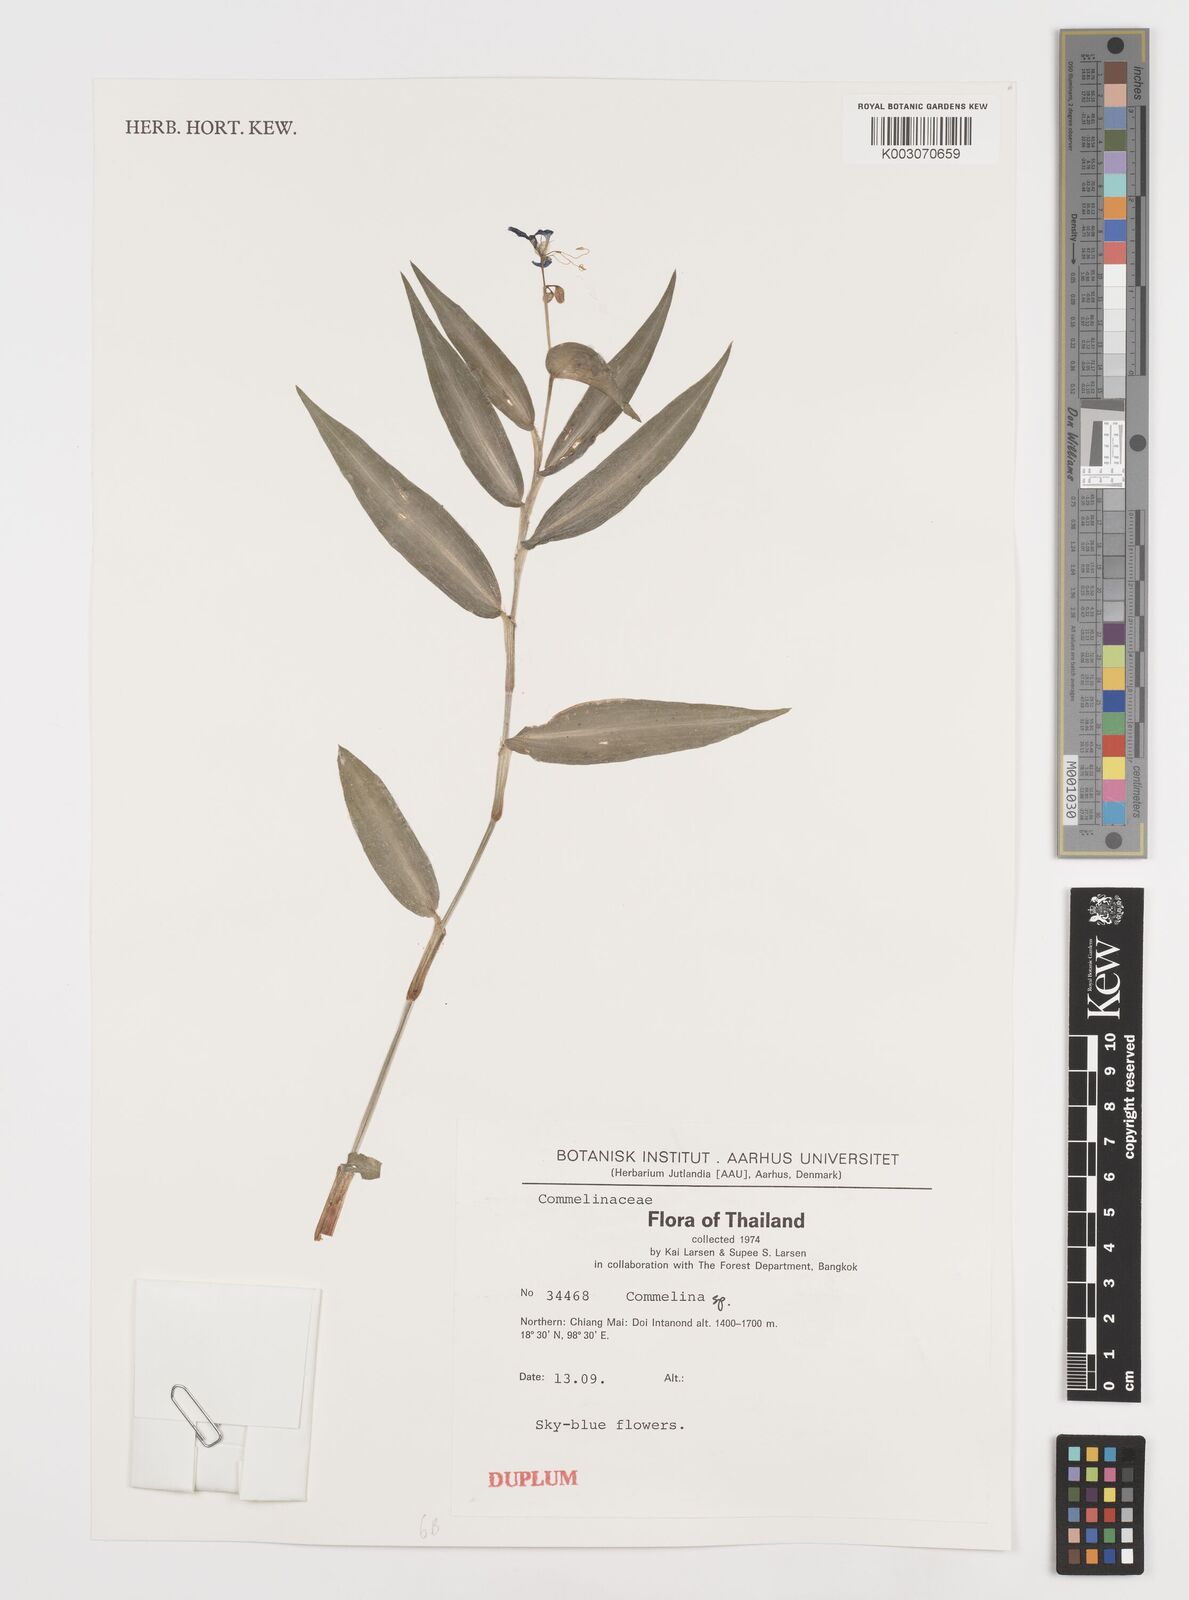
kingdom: Plantae
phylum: Tracheophyta
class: Liliopsida
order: Commelinales
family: Commelinaceae
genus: Commelina
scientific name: Commelina
